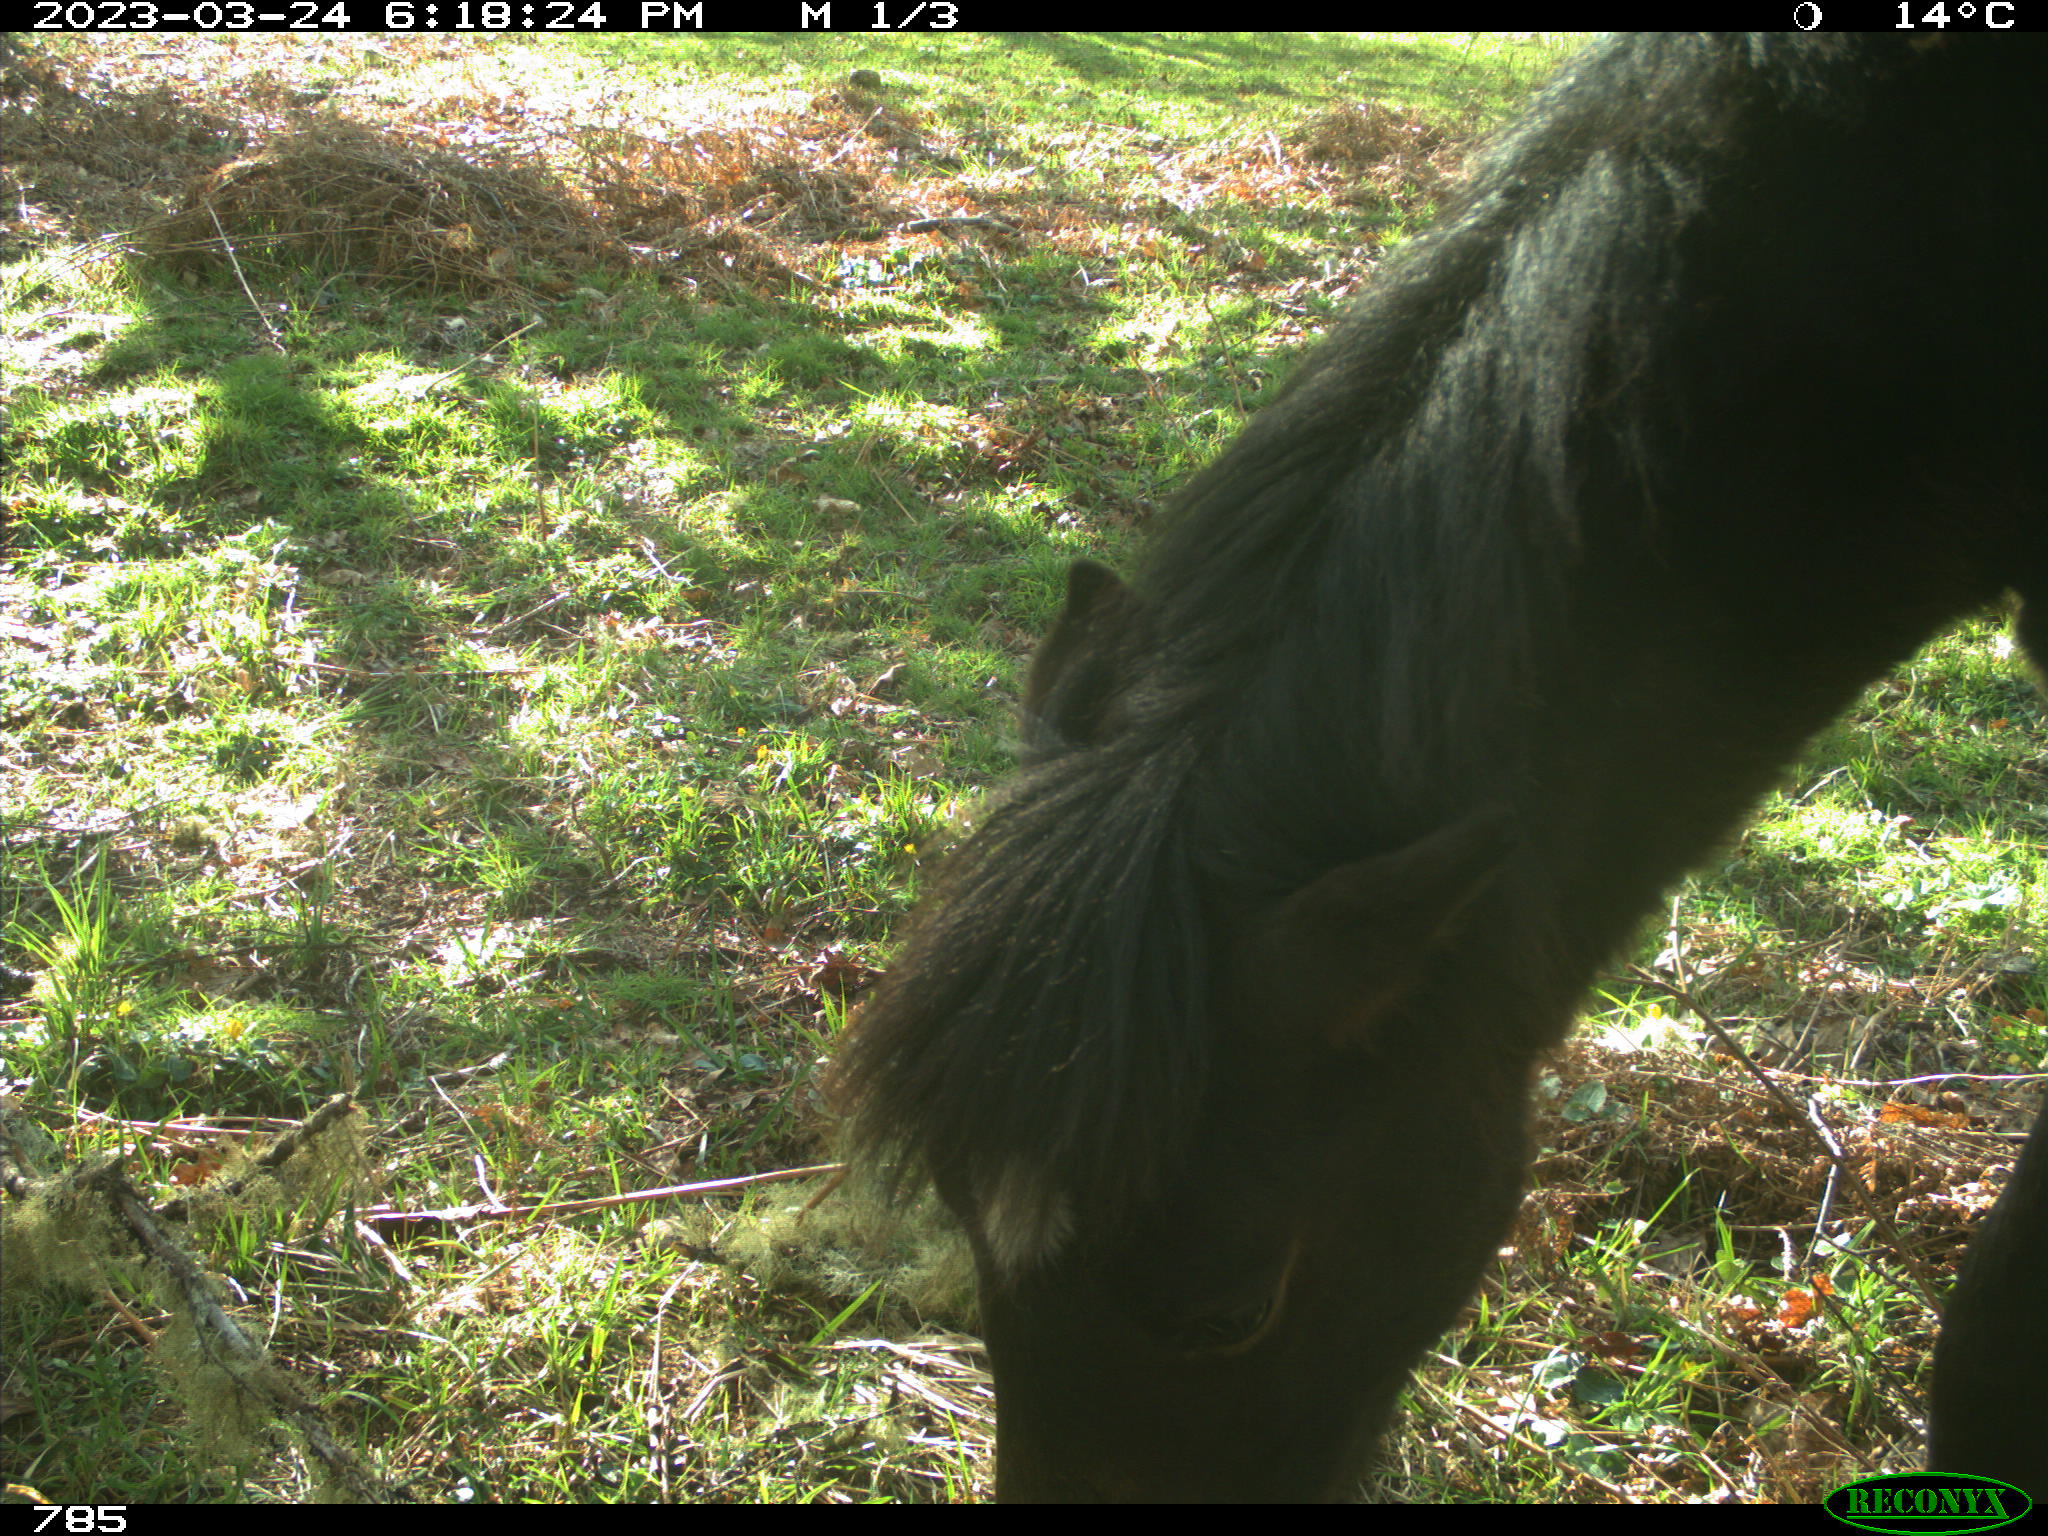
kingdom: Animalia
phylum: Chordata
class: Mammalia
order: Perissodactyla
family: Equidae
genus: Equus
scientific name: Equus caballus
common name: Horse
